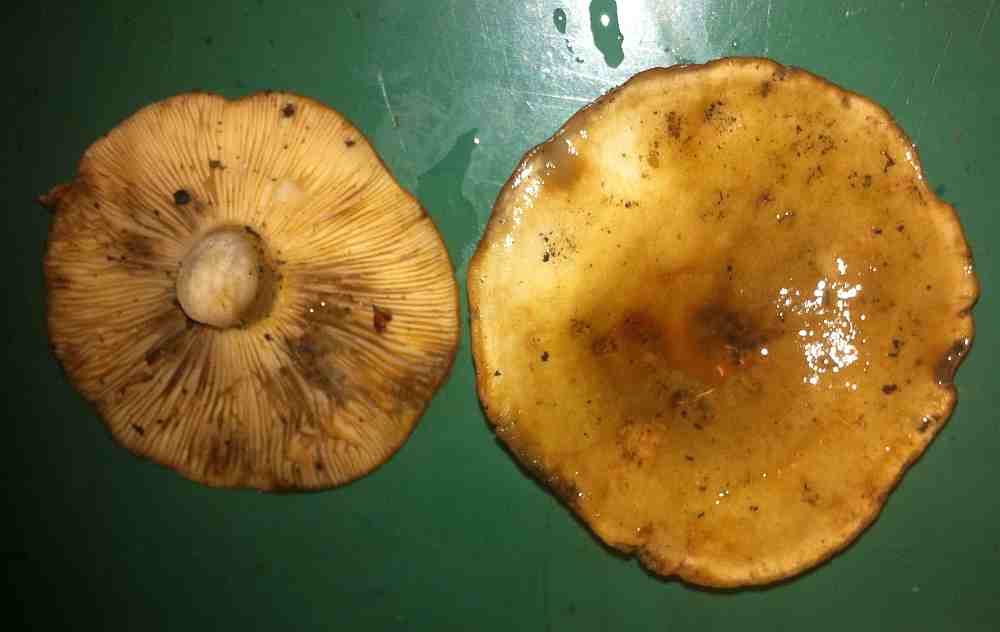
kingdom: Fungi
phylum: Basidiomycota
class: Agaricomycetes
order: Russulales
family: Russulaceae
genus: Lactarius
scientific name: Lactarius fluens
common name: lysrandet mælkehat
